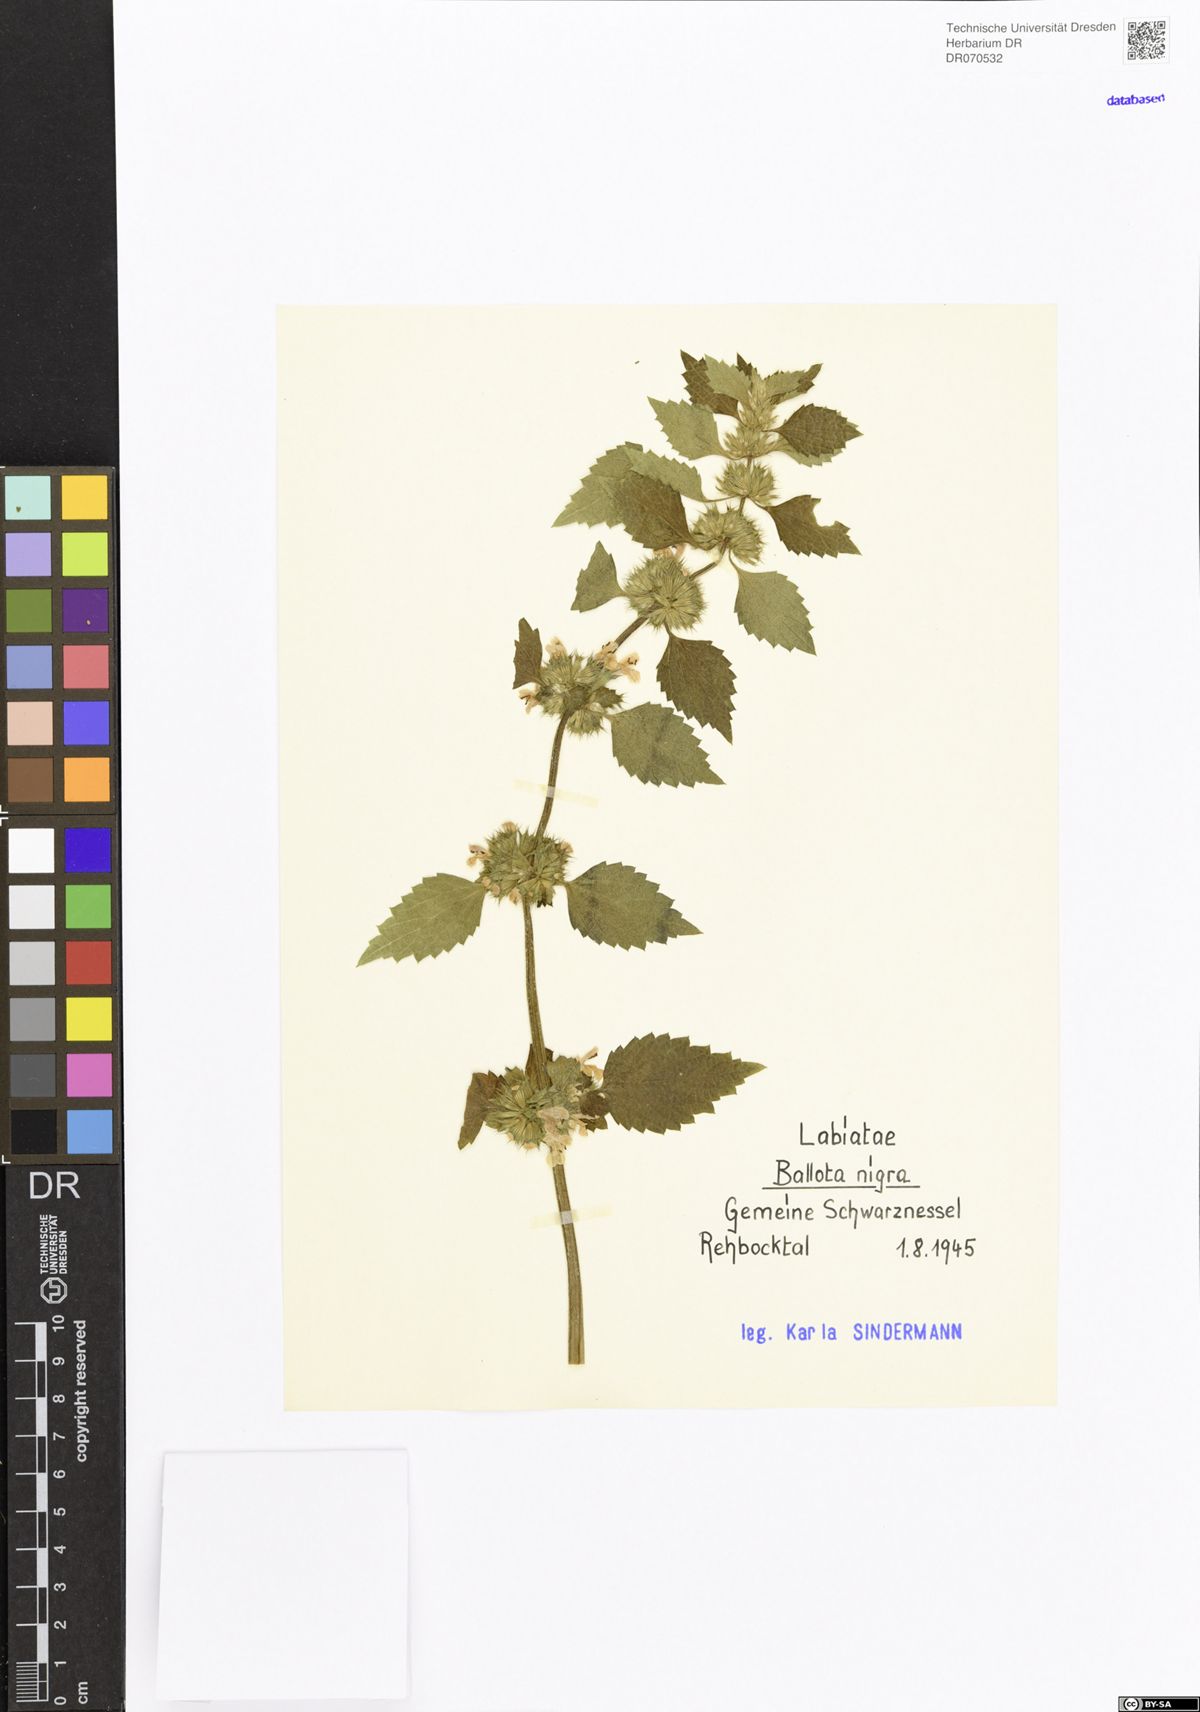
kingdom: Plantae
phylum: Tracheophyta
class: Magnoliopsida
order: Lamiales
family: Lamiaceae
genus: Ballota
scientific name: Ballota nigra
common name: Black horehound
